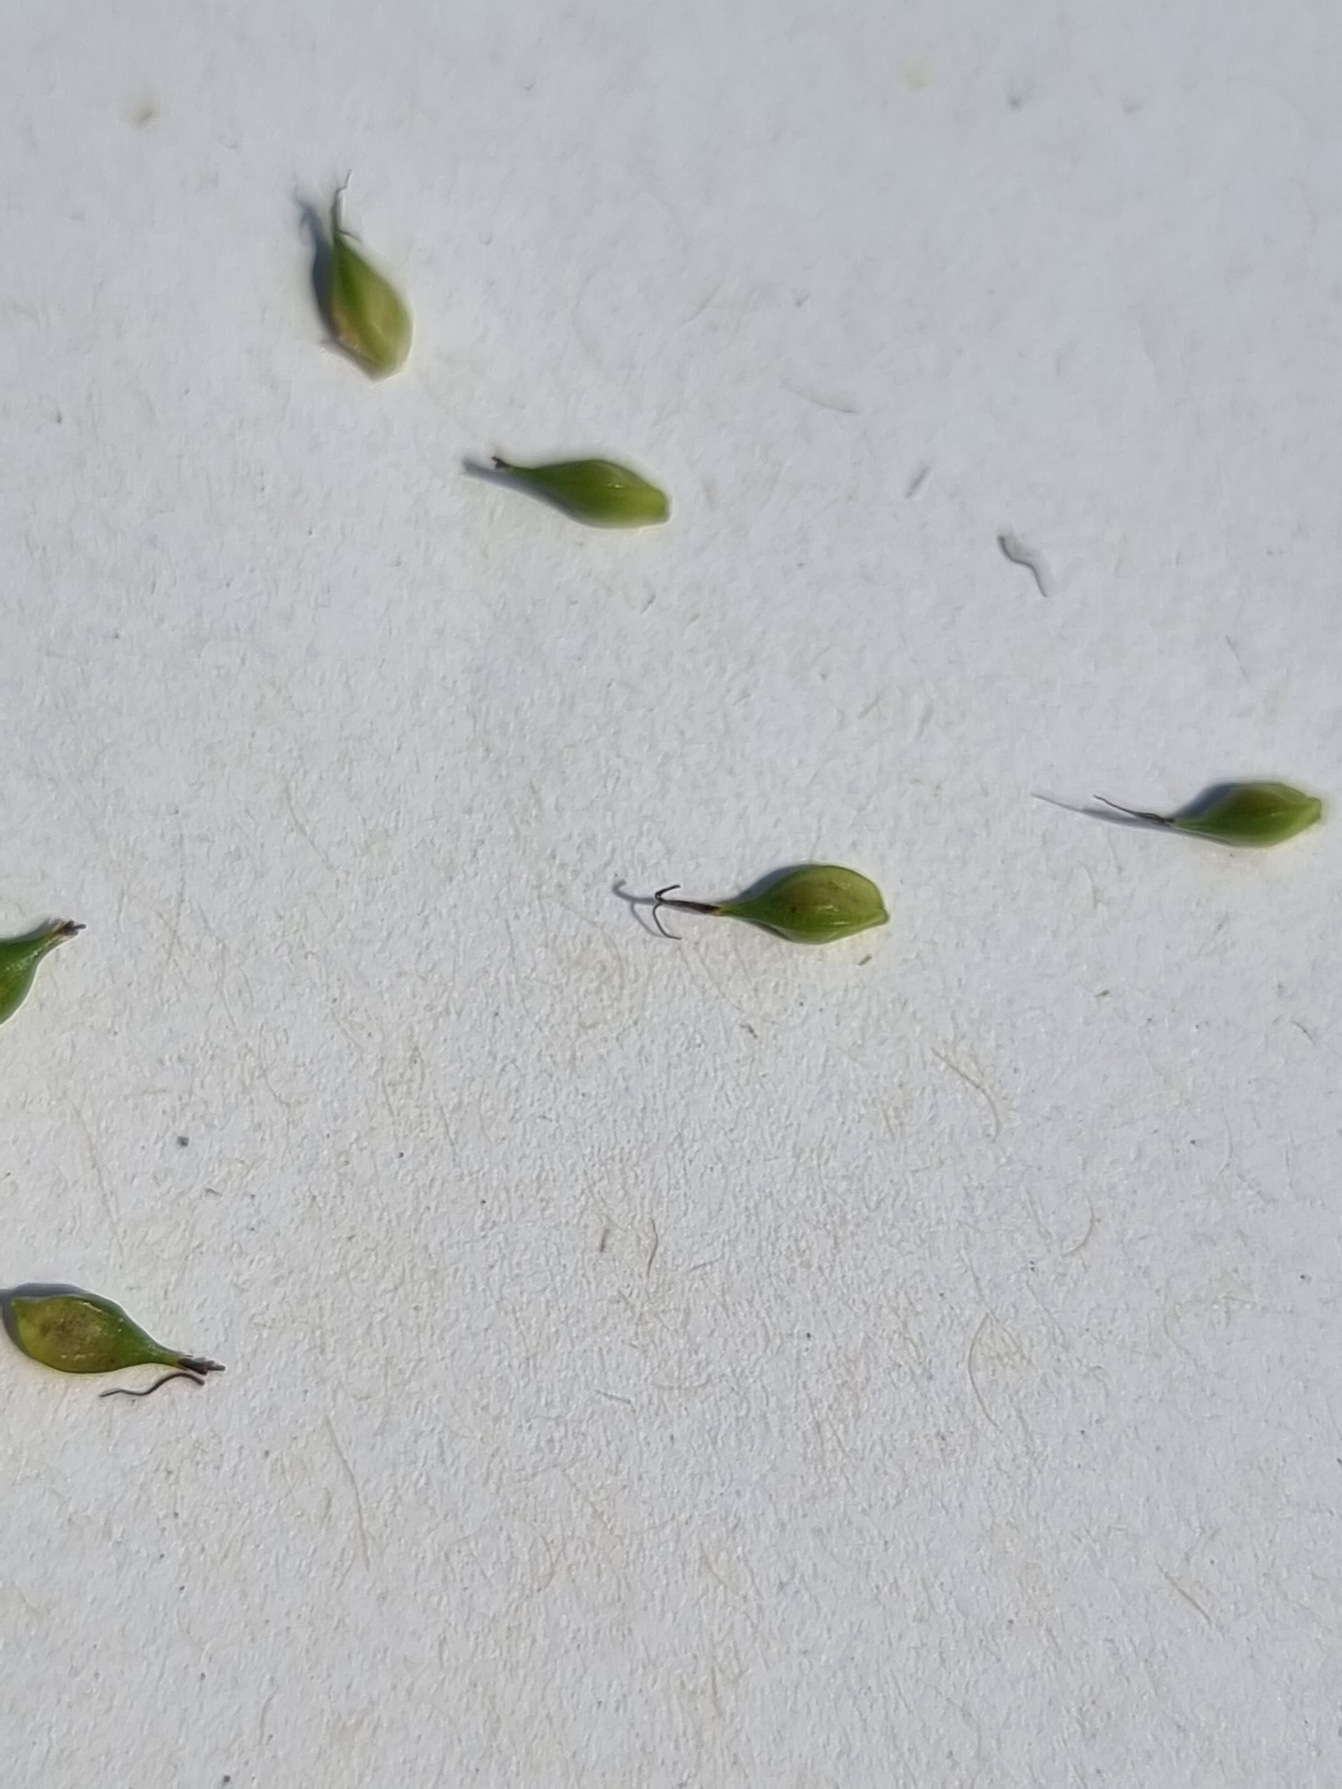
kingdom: Plantae
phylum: Tracheophyta
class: Liliopsida
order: Poales
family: Cyperaceae
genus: Carex
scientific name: Carex distans
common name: Fjernakset star
